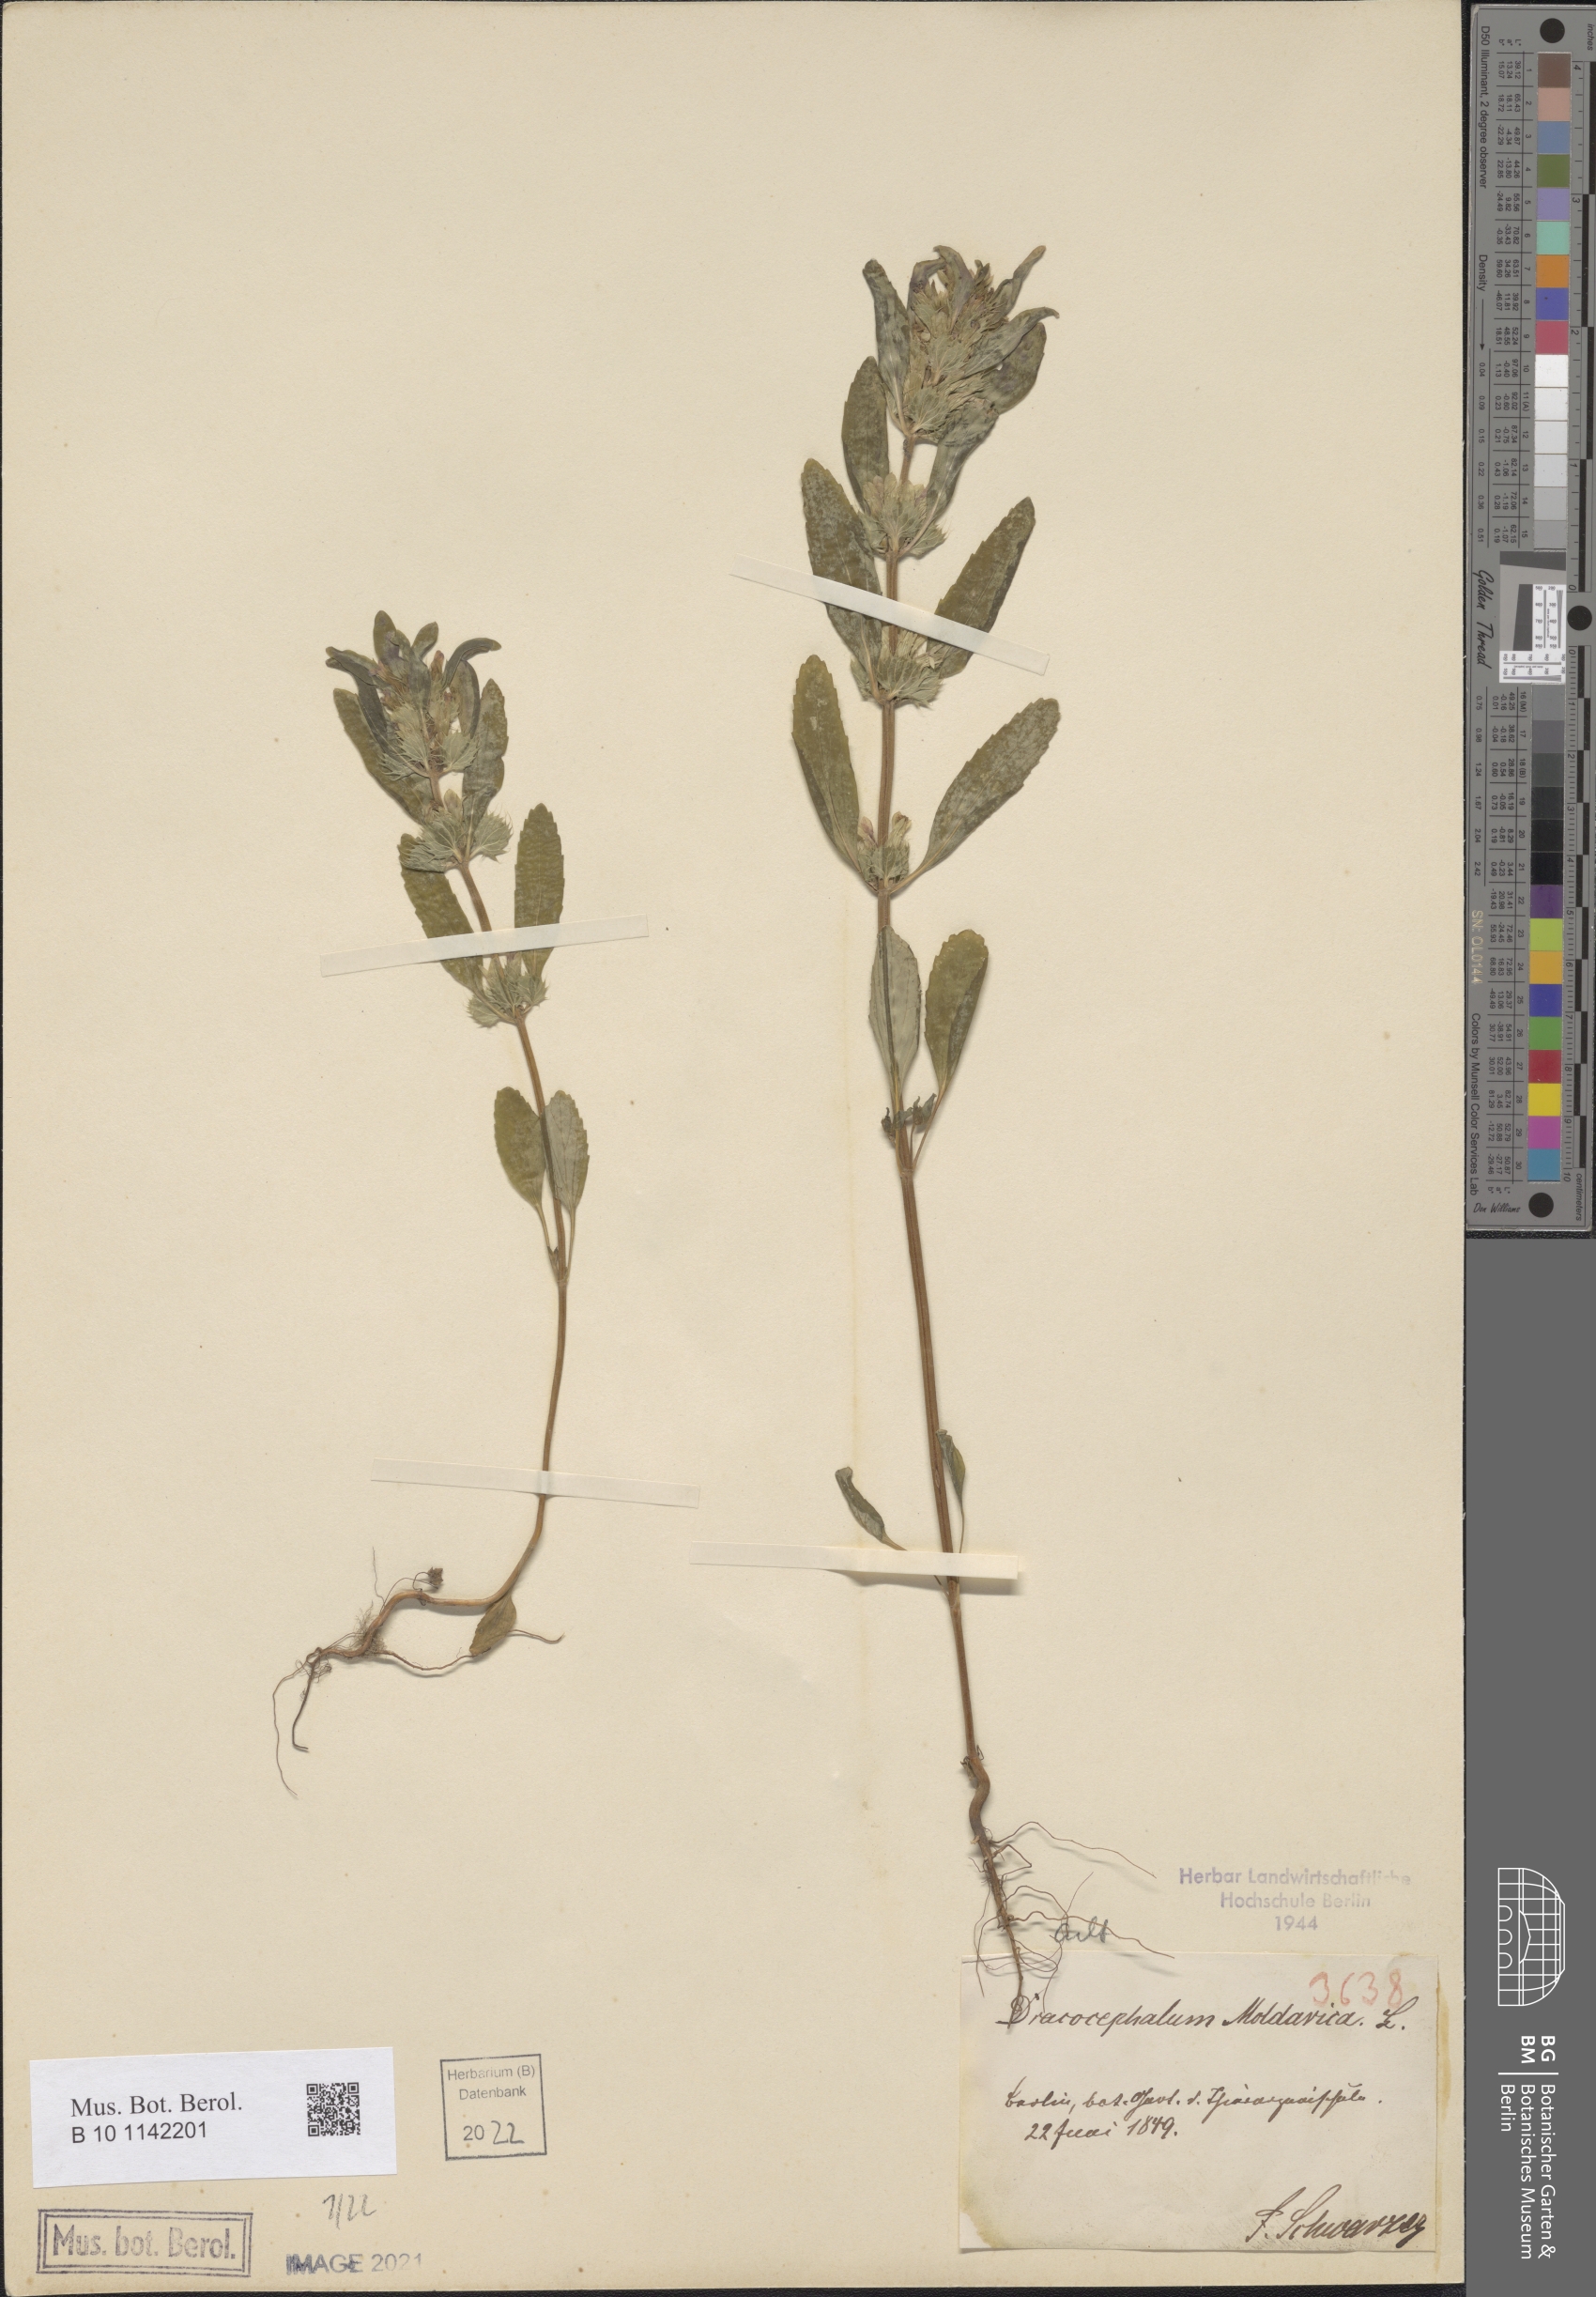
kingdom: Plantae
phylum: Tracheophyta
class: Magnoliopsida
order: Lamiales
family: Lamiaceae
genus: Dracocephalum
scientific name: Dracocephalum moldavica
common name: Moldavian dragonhead
